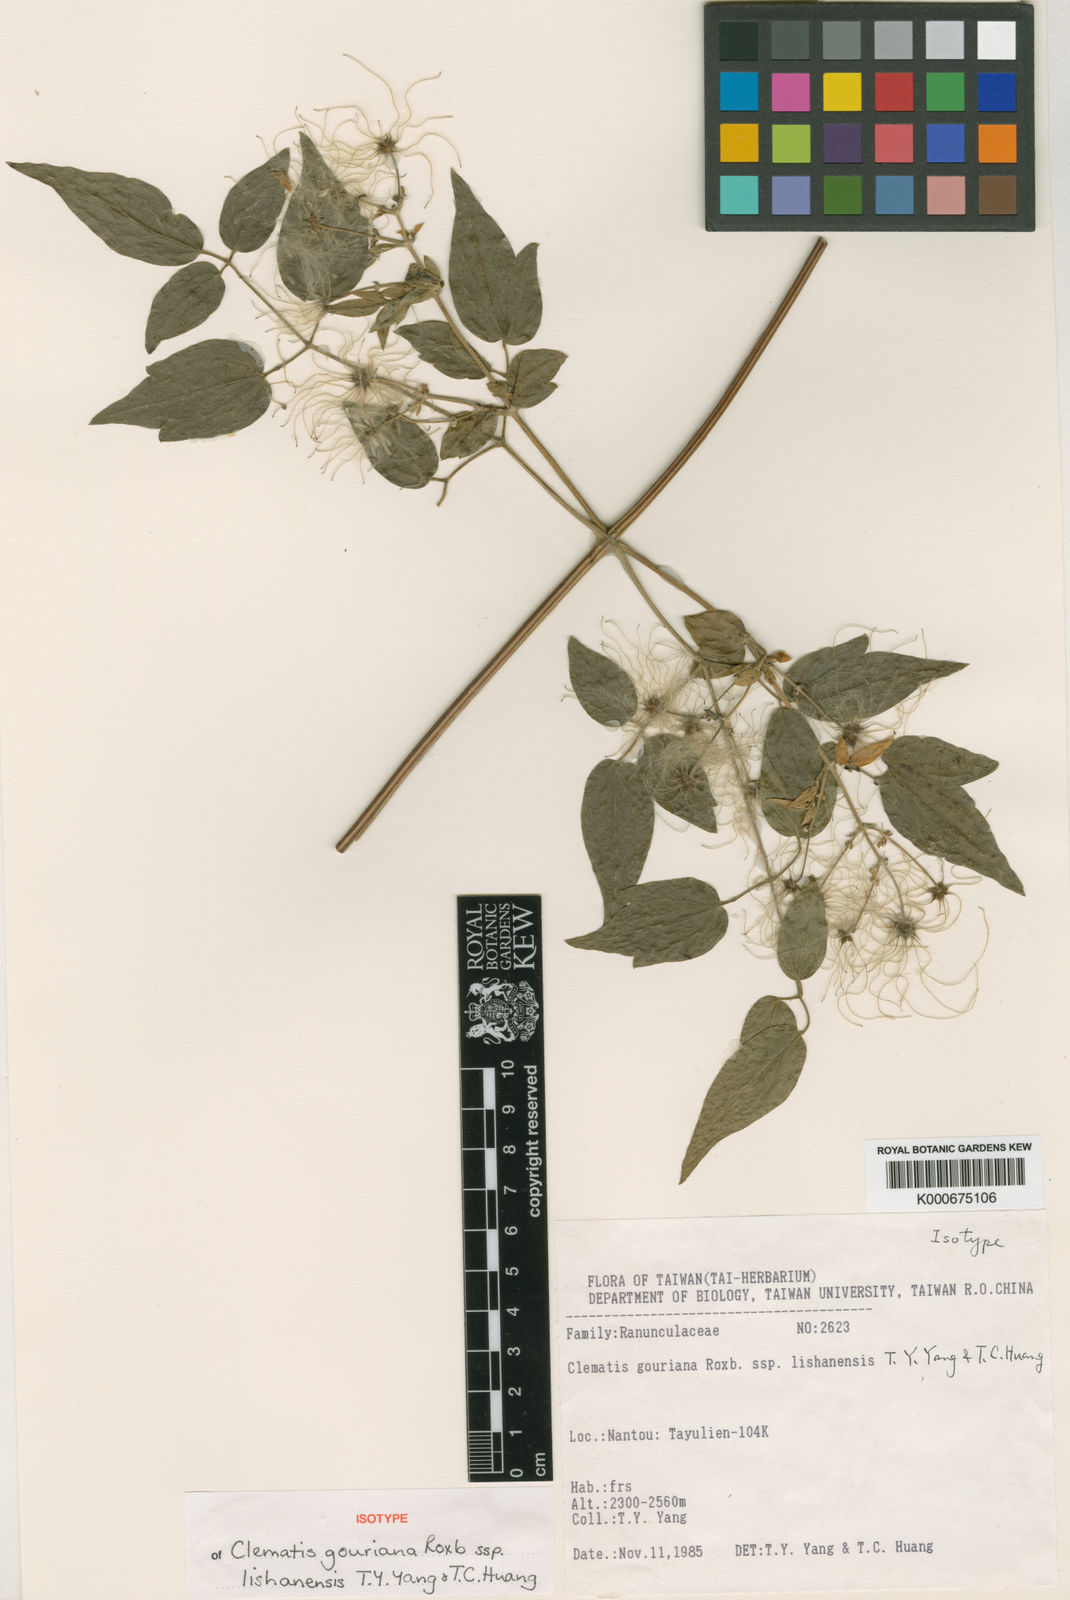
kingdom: Plantae
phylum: Tracheophyta
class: Magnoliopsida
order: Ranunculales
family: Ranunculaceae
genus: Clematis
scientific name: Clematis lishanensis
